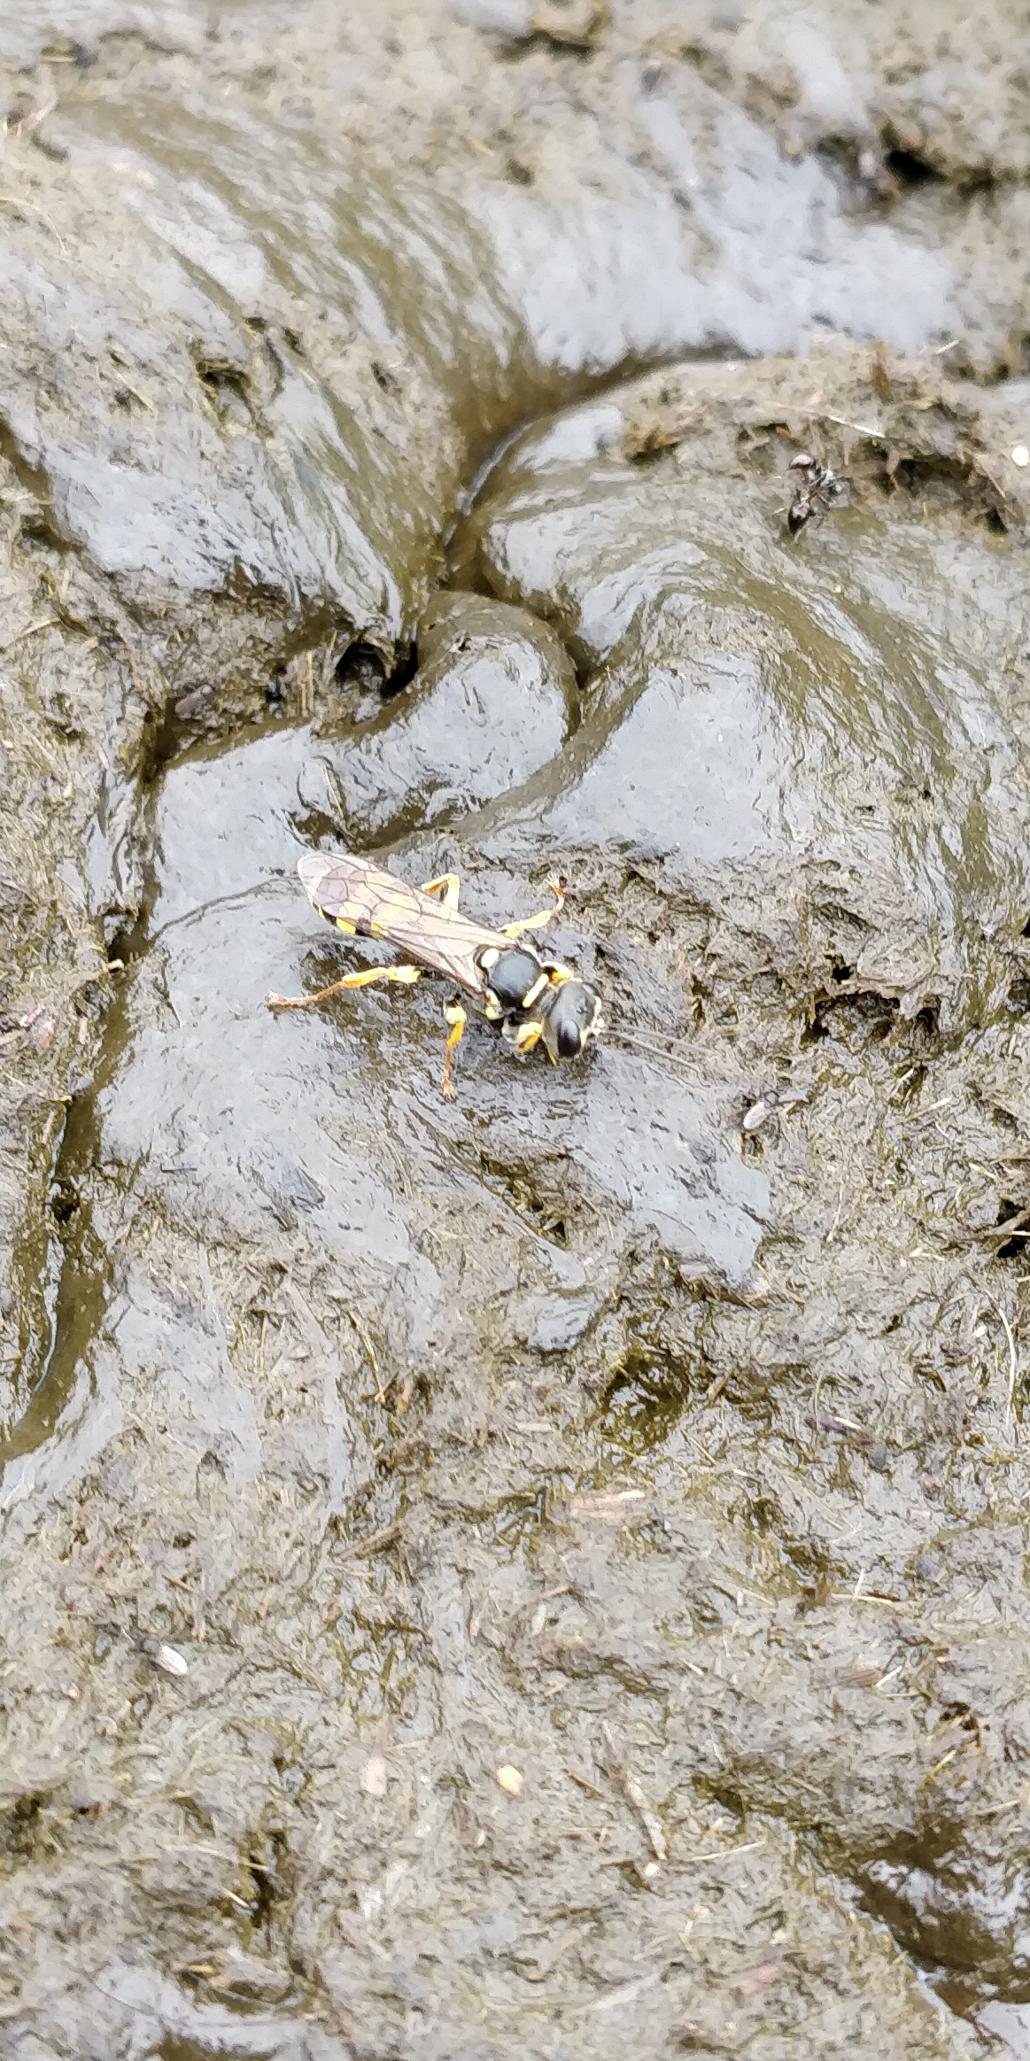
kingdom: Animalia
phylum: Arthropoda
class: Insecta
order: Hymenoptera
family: Crabronidae
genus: Mellinus
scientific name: Mellinus arvensis
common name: Efterårsgravehveps
